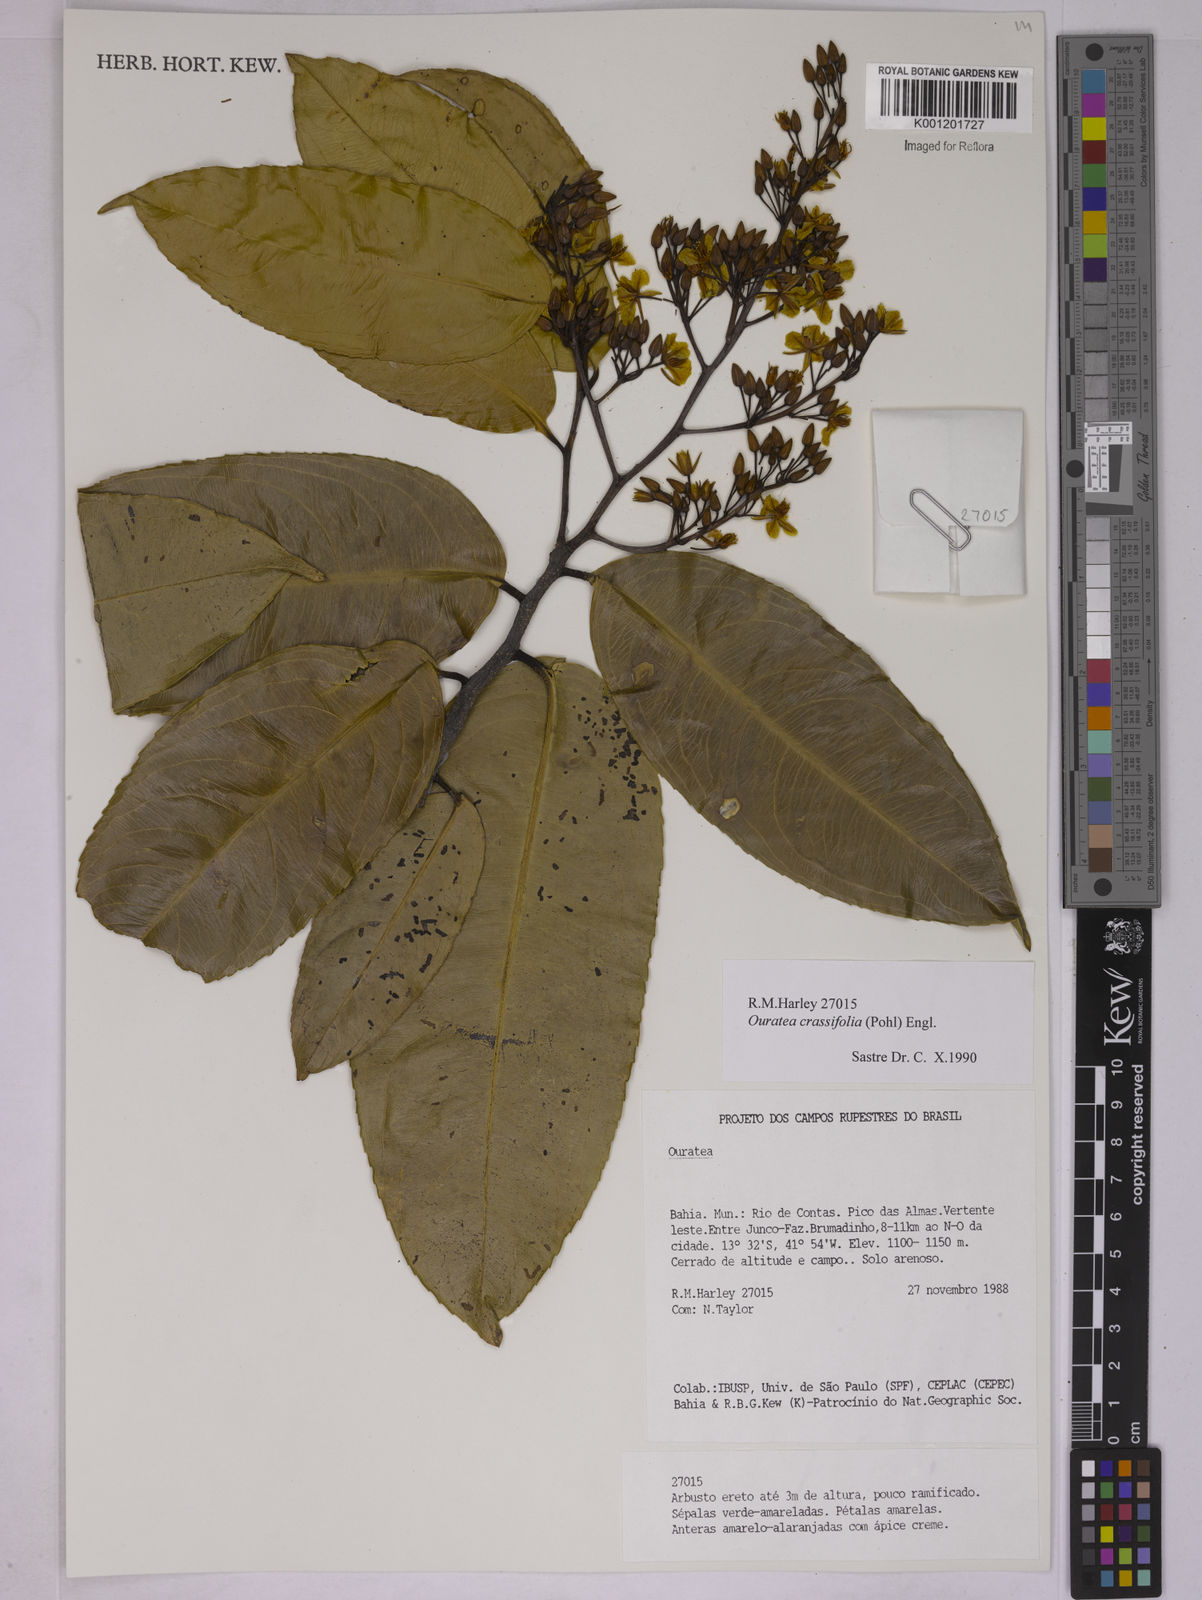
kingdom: Plantae
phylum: Tracheophyta
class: Magnoliopsida
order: Malpighiales
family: Ochnaceae
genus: Ouratea
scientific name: Ouratea crassifolia
